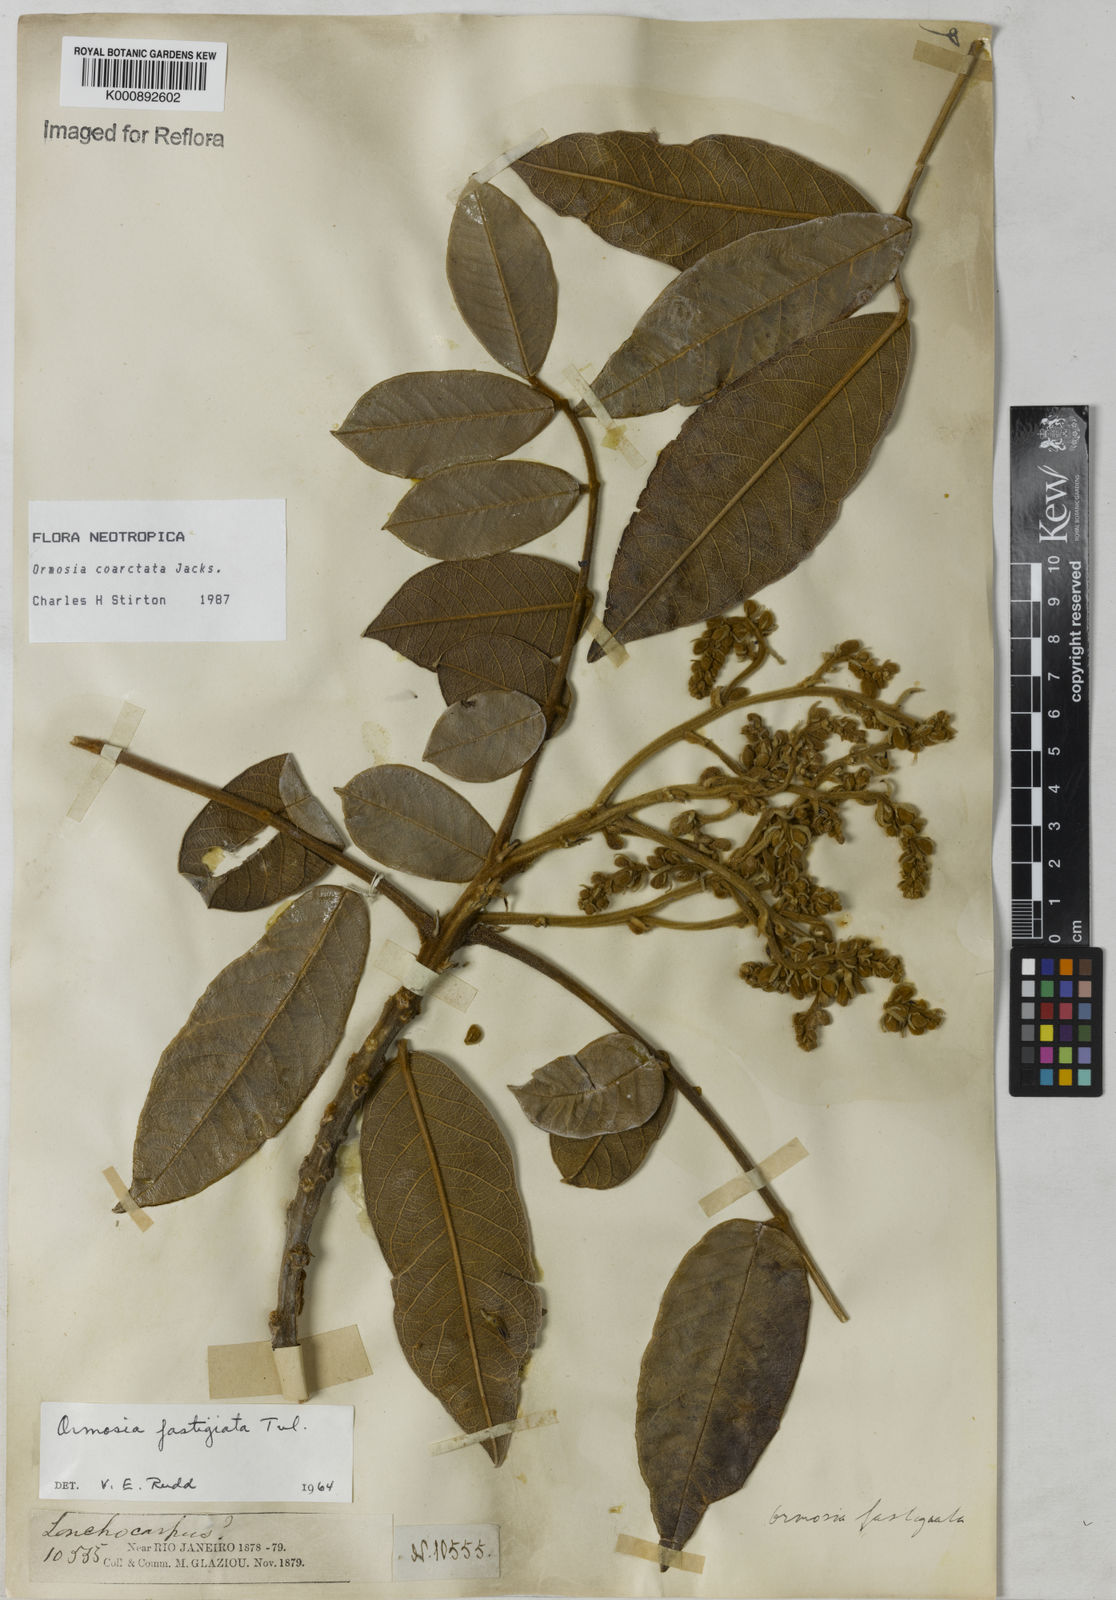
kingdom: Plantae
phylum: Tracheophyta
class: Magnoliopsida
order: Fabales
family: Fabaceae
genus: Ormosia
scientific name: Ormosia fastigiata
